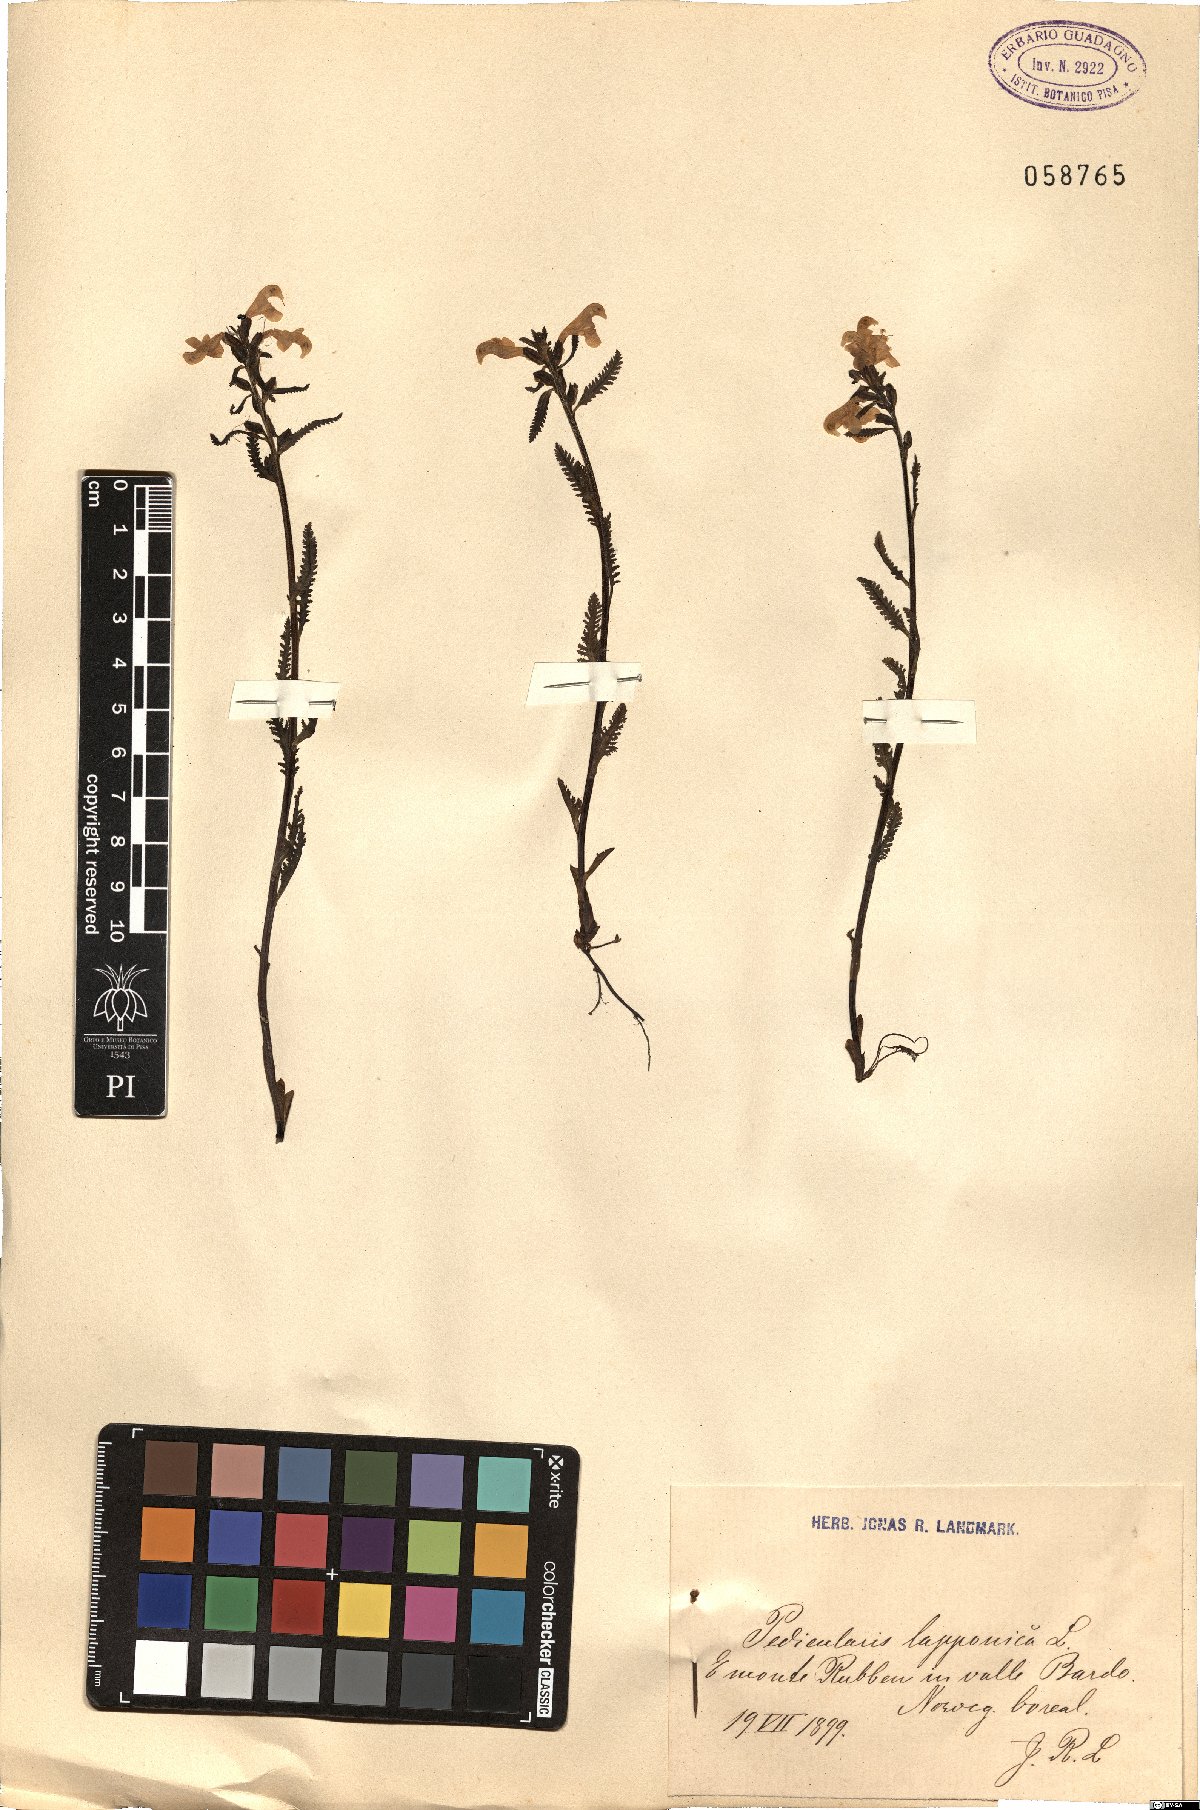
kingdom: Plantae
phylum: Tracheophyta
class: Magnoliopsida
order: Lamiales
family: Orobanchaceae
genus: Pedicularis
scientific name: Pedicularis lapponica
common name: Lapland lousewort
